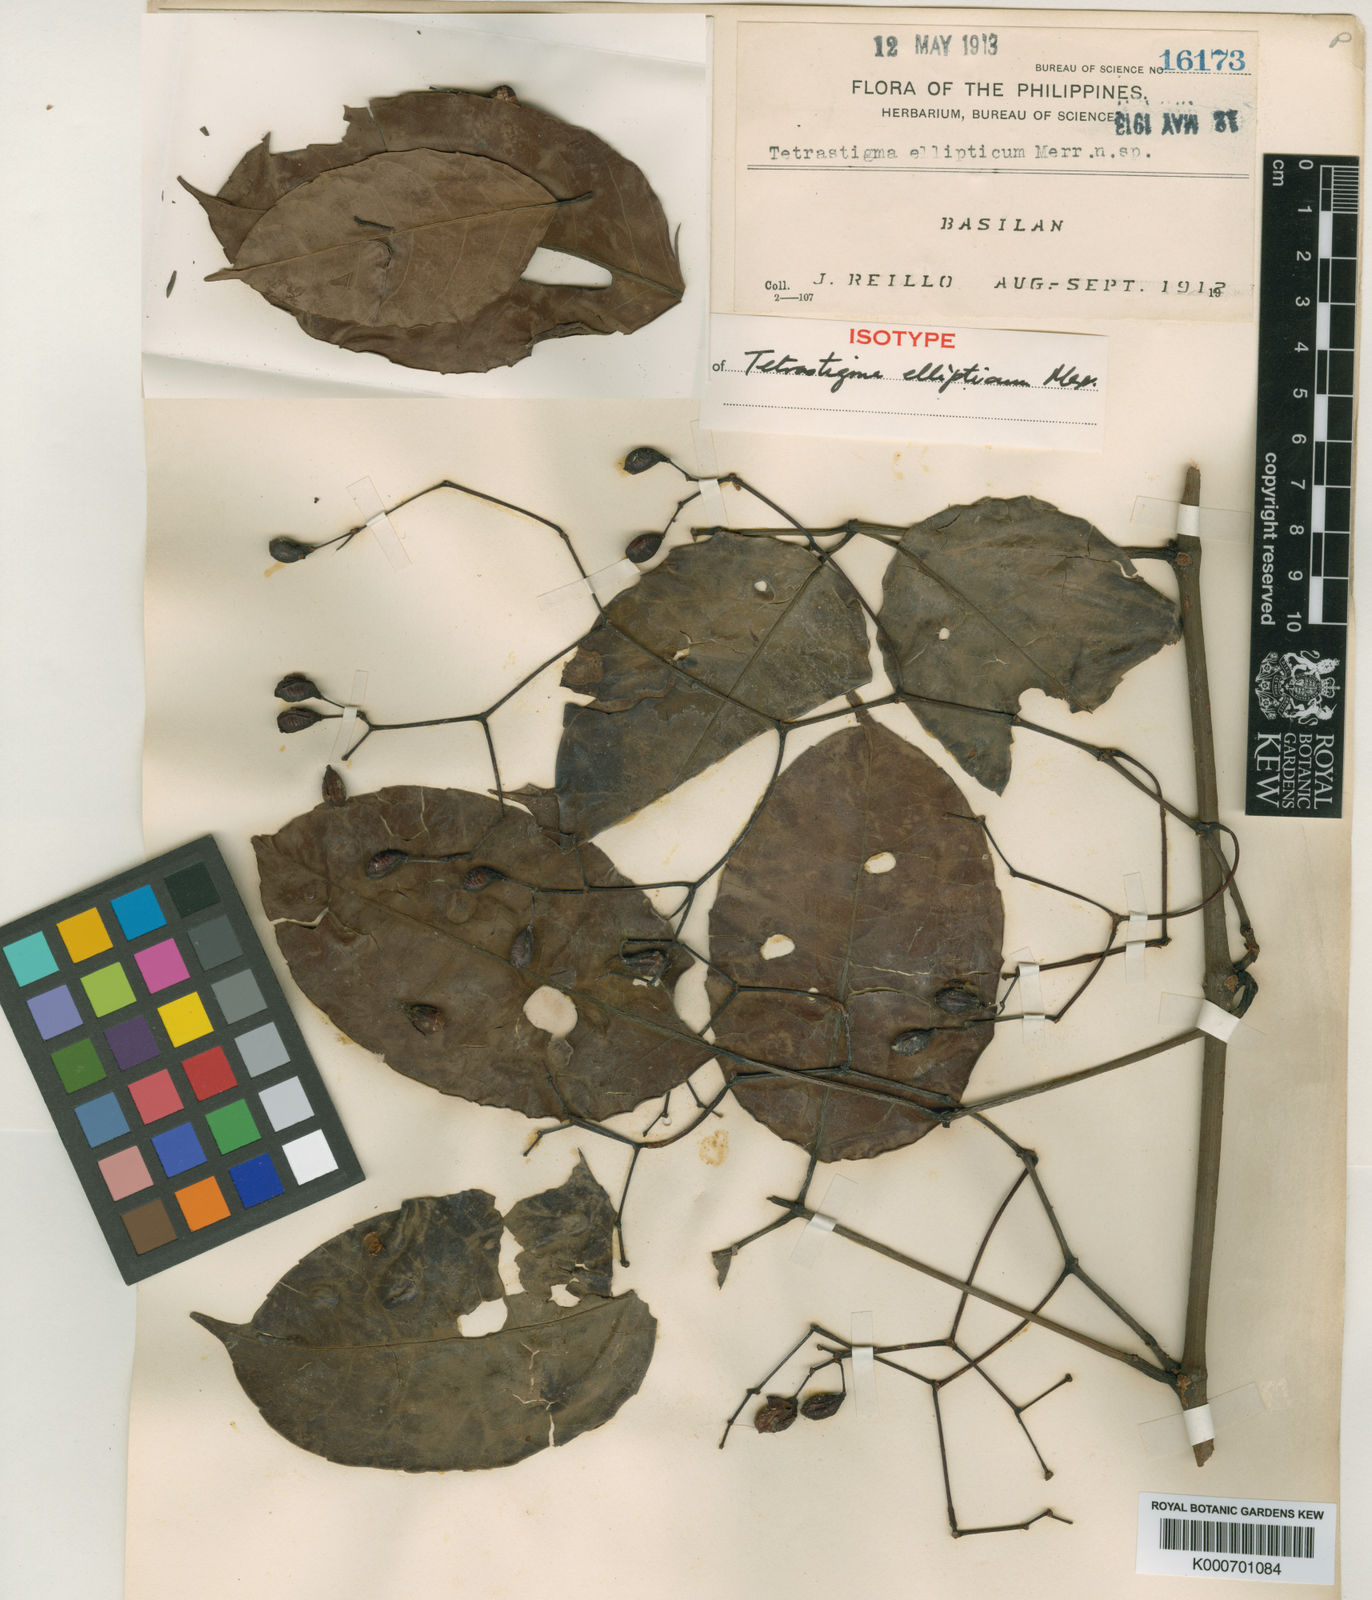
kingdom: Plantae
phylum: Tracheophyta
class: Magnoliopsida
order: Vitales
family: Vitaceae
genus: Tetrastigma
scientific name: Tetrastigma ellipticum
